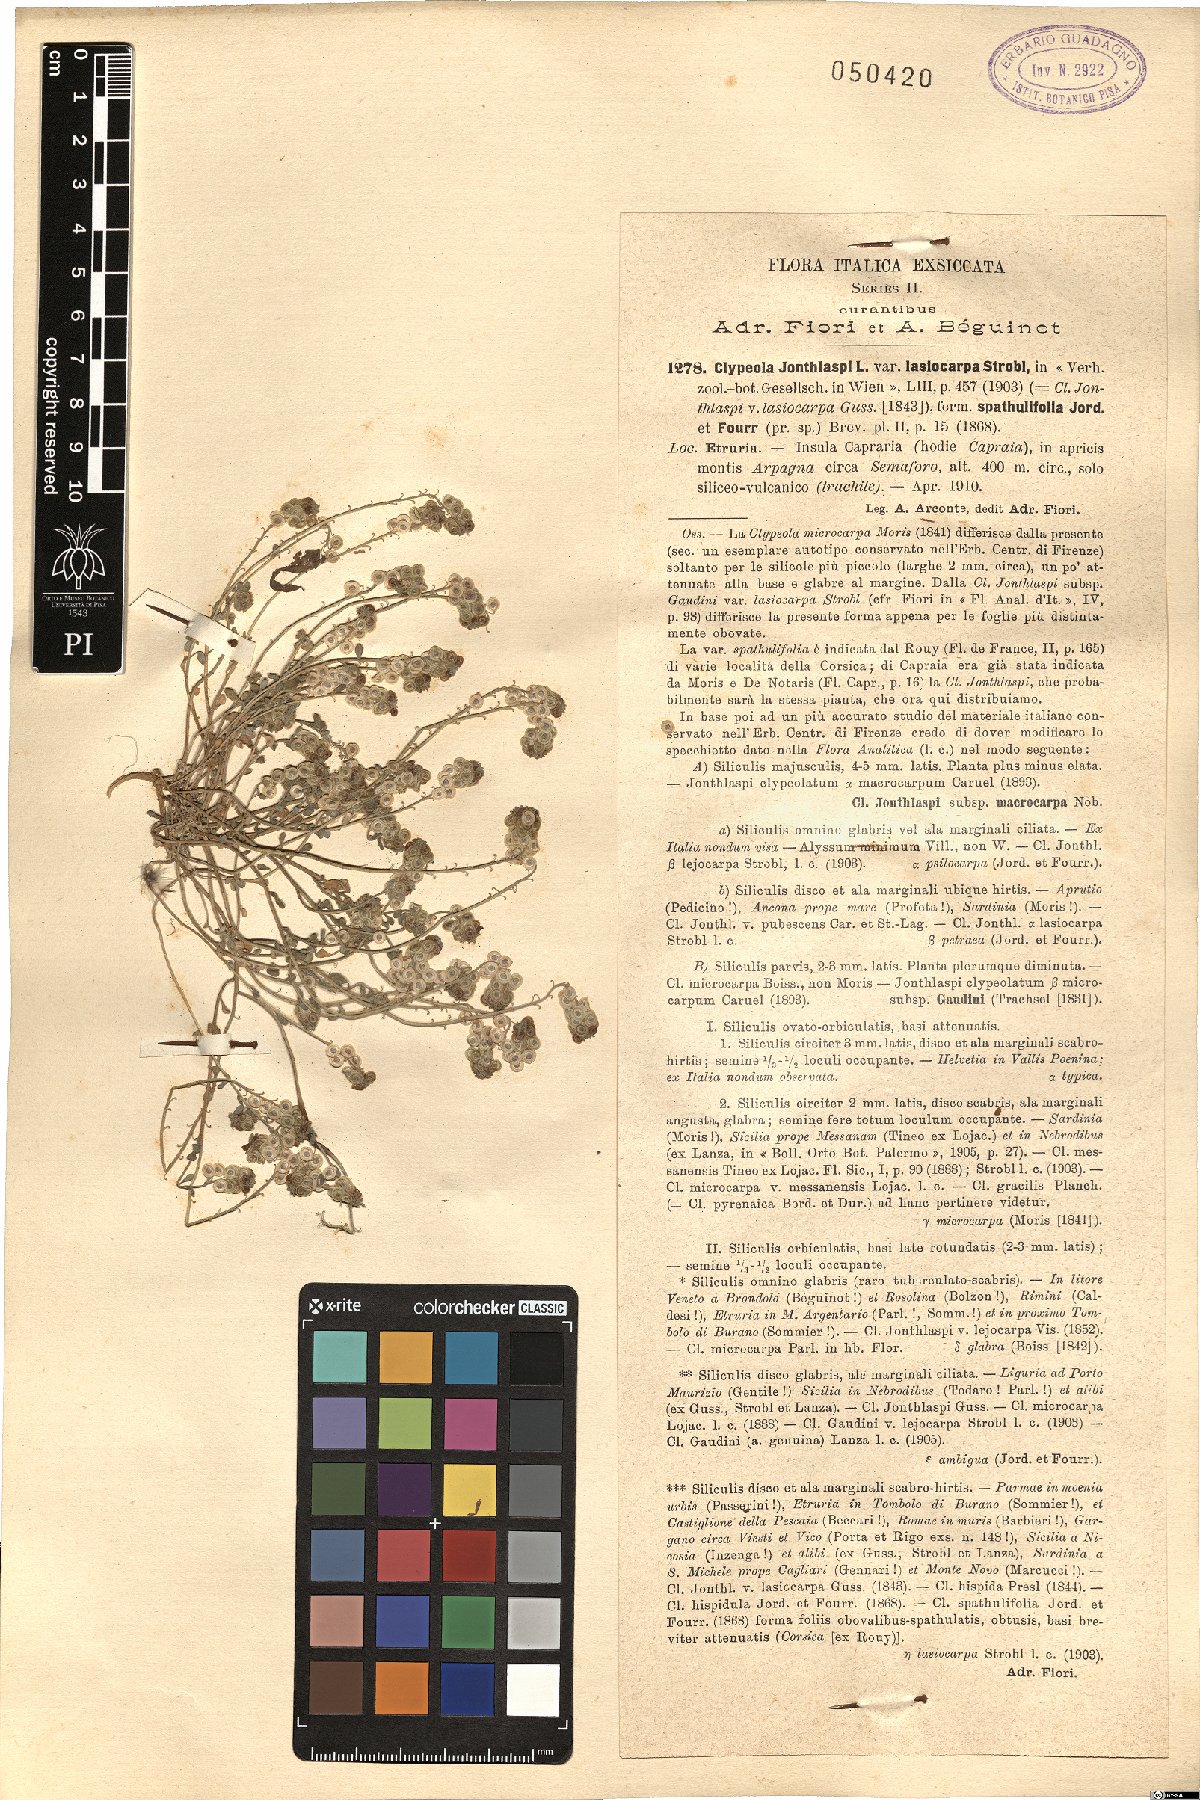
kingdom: Plantae
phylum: Tracheophyta
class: Magnoliopsida
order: Brassicales
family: Brassicaceae
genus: Clypeola
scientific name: Clypeola jonthlaspi
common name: Disk cress
